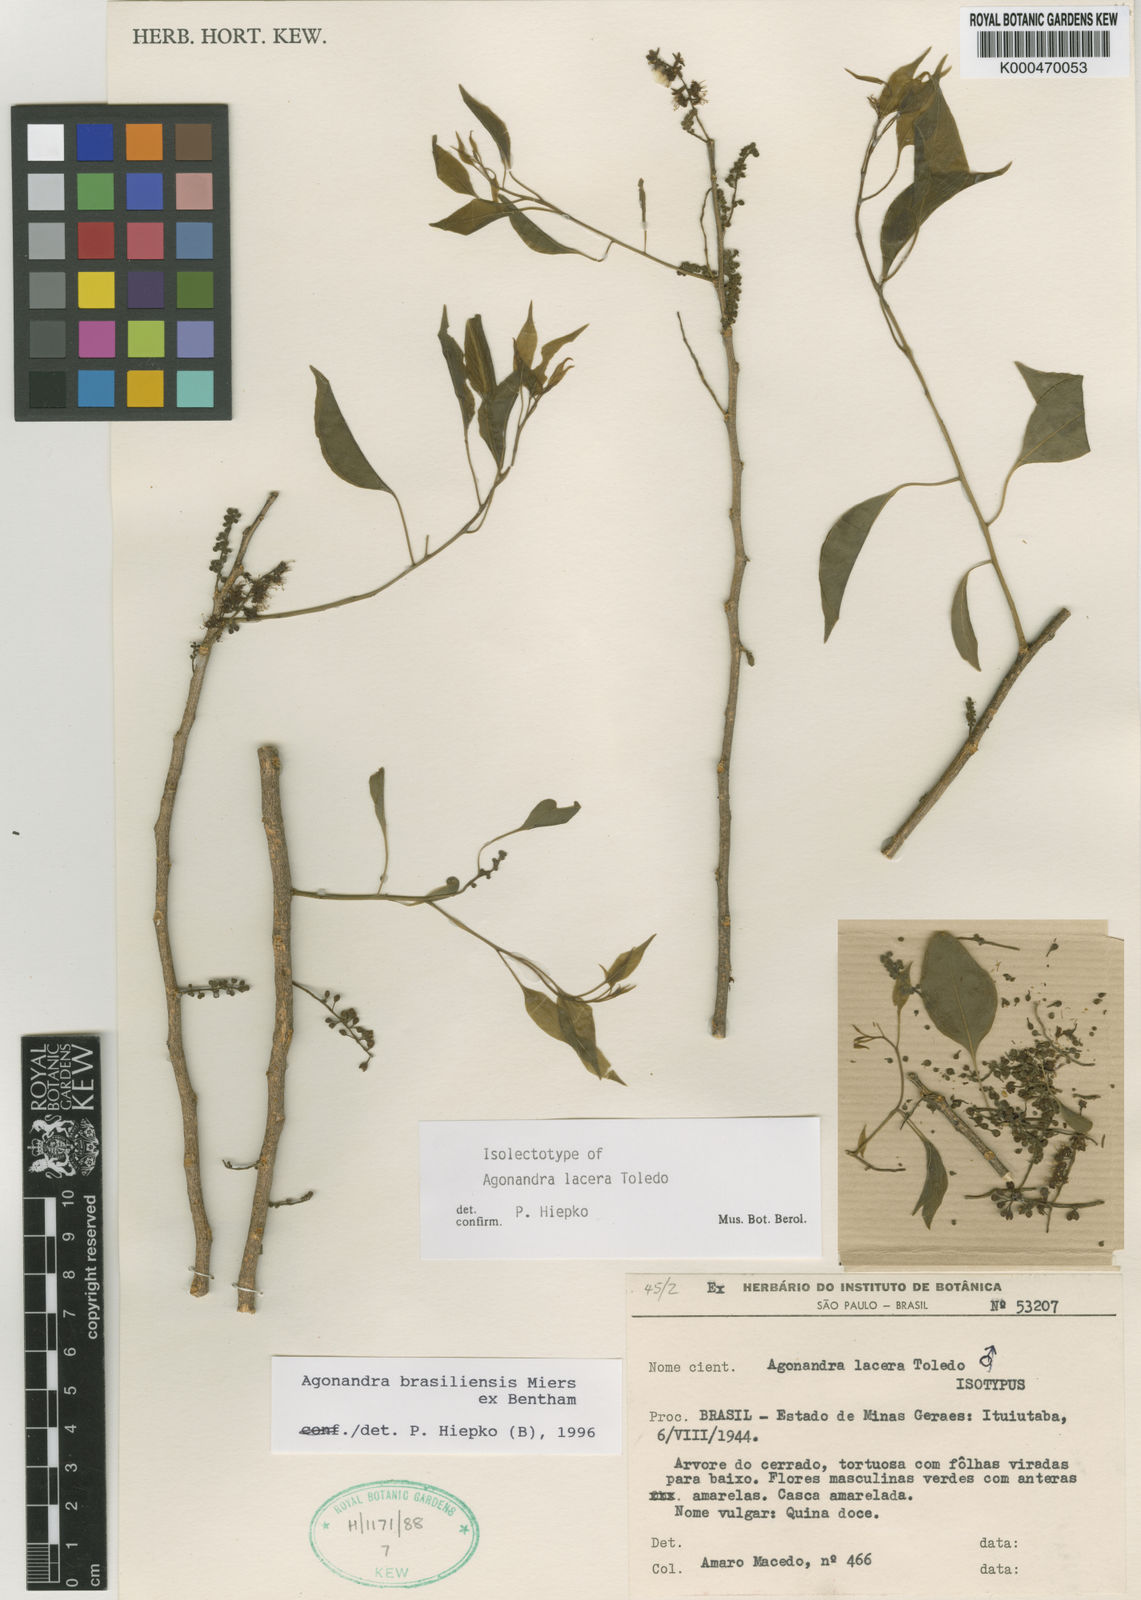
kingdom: Plantae
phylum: Tracheophyta
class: Magnoliopsida
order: Santalales
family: Opiliaceae
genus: Agonandra
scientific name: Agonandra brasiliensis
